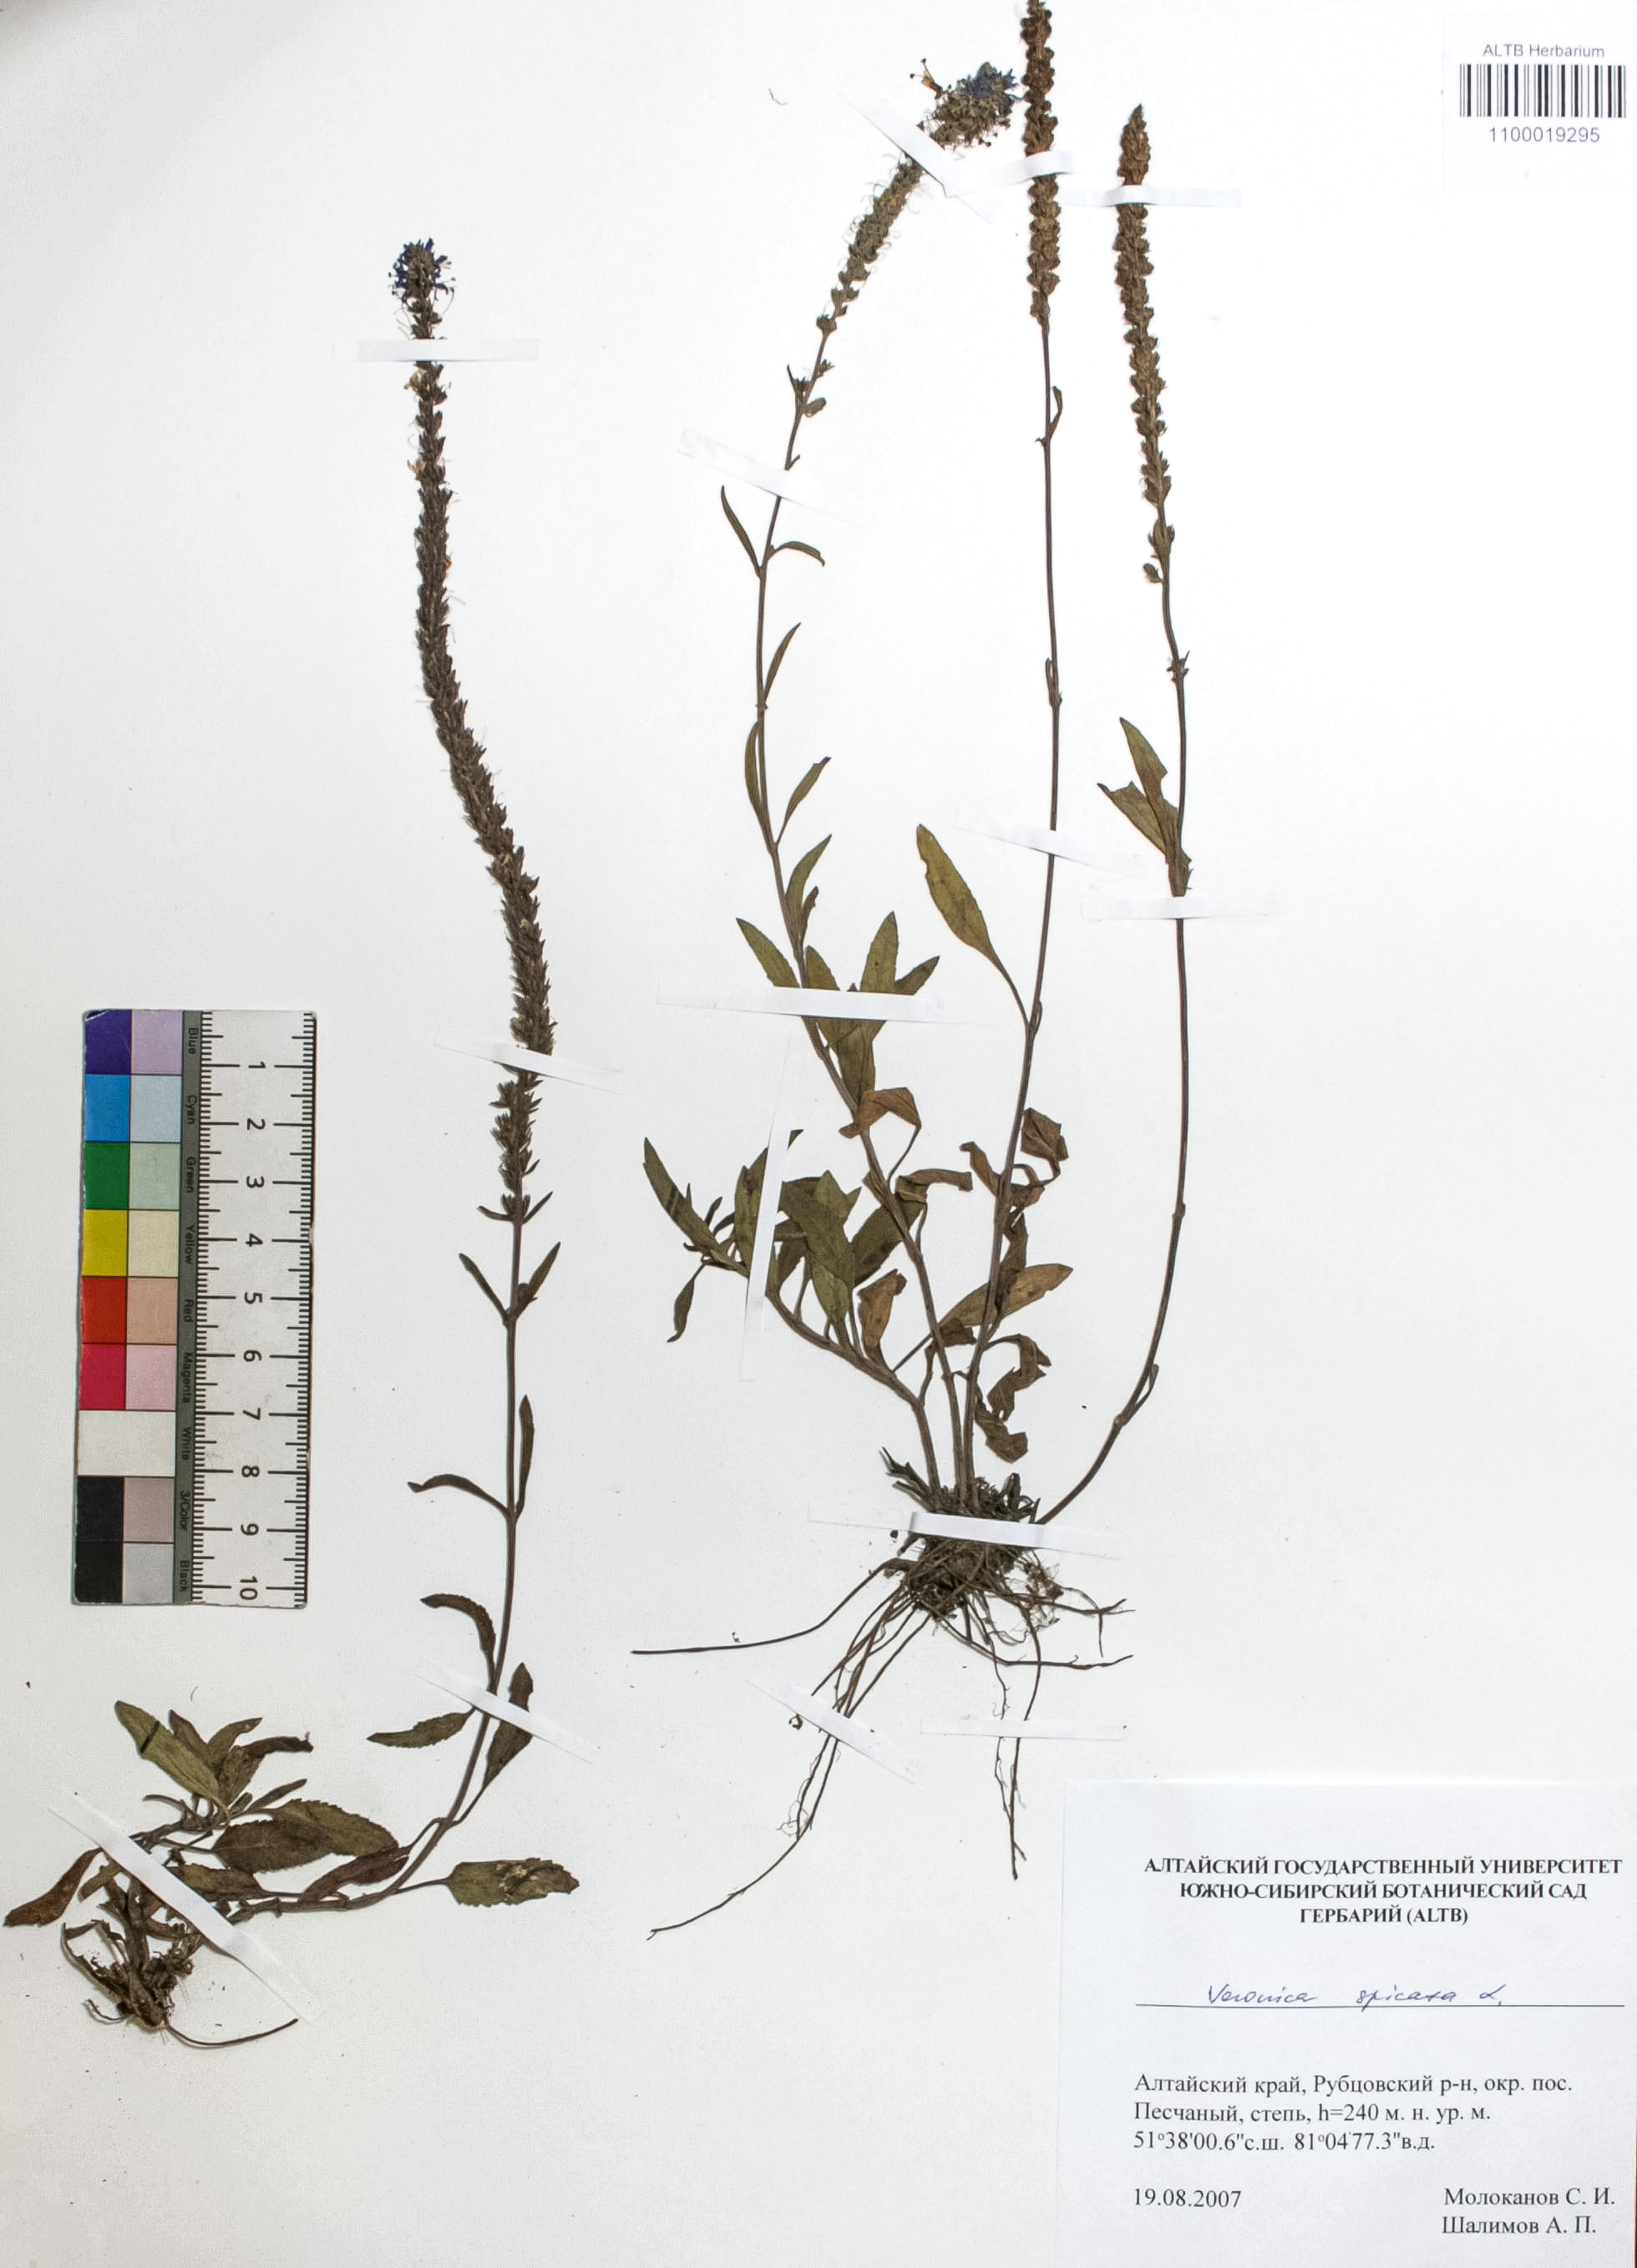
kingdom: Plantae
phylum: Tracheophyta
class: Magnoliopsida
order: Lamiales
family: Plantaginaceae
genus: Veronica
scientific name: Veronica spicata
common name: Spiked speedwell
